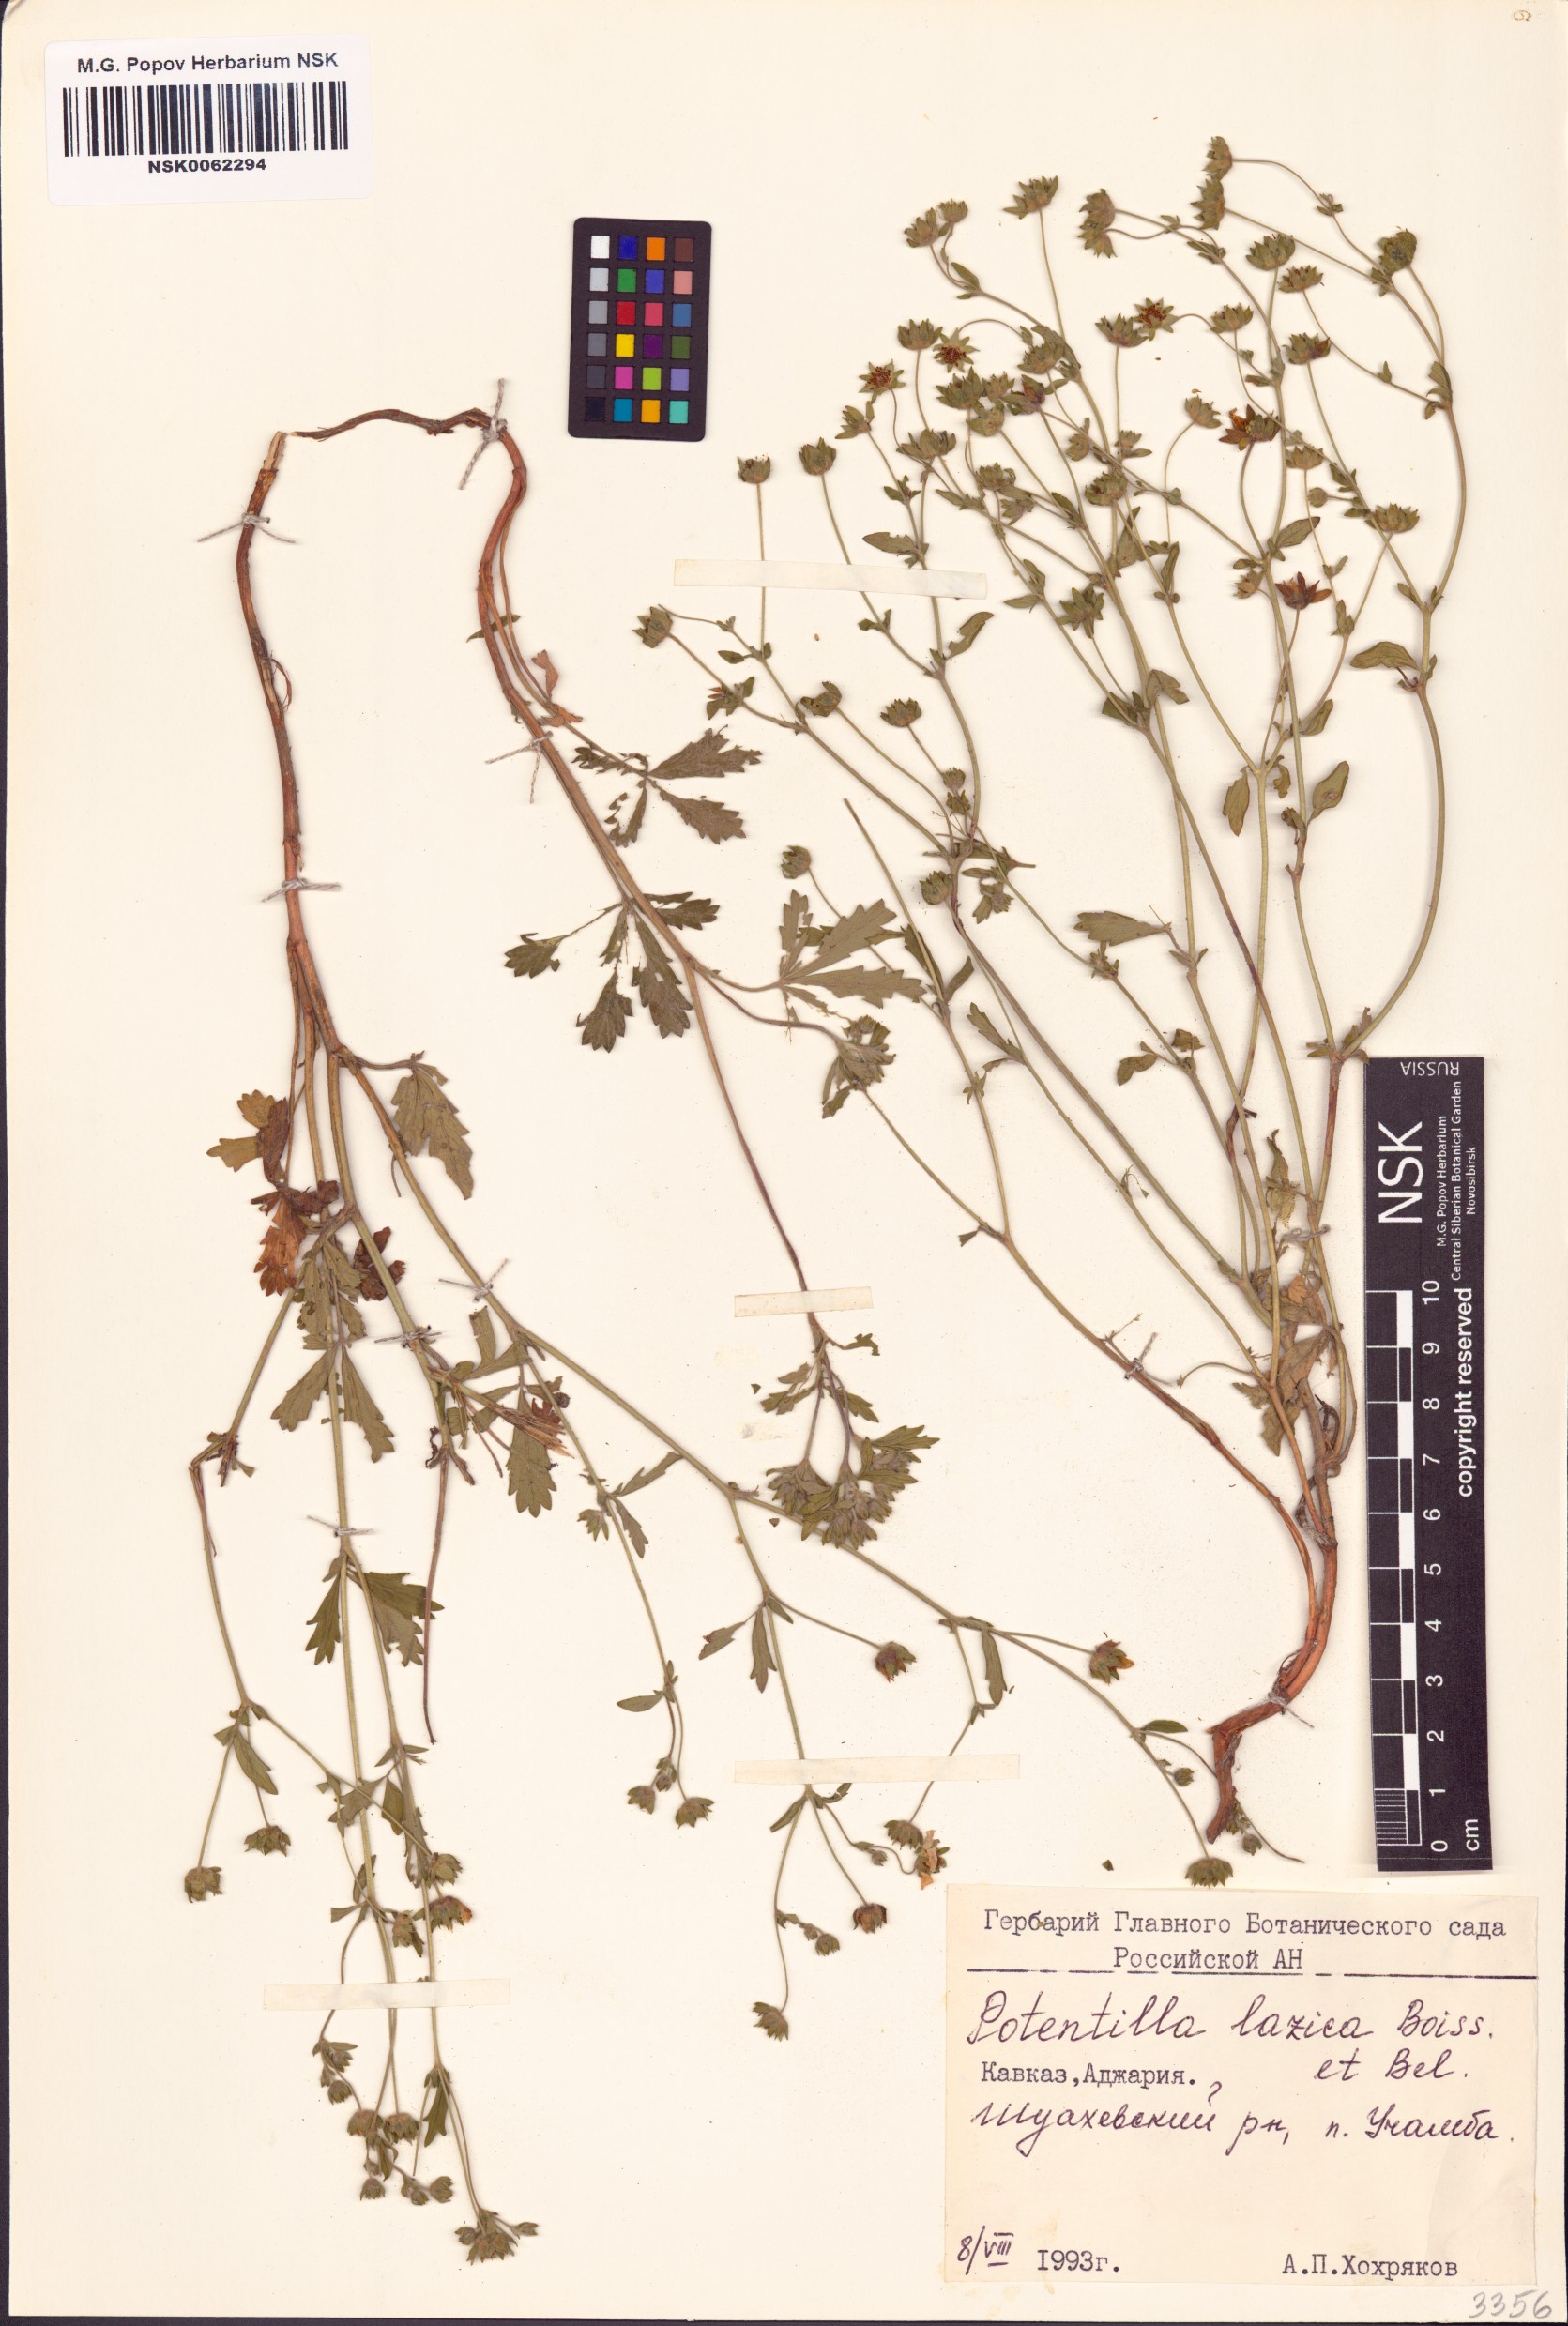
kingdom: Plantae
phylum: Tracheophyta
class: Magnoliopsida
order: Rosales
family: Rosaceae
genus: Potentilla
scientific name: Potentilla lazica
